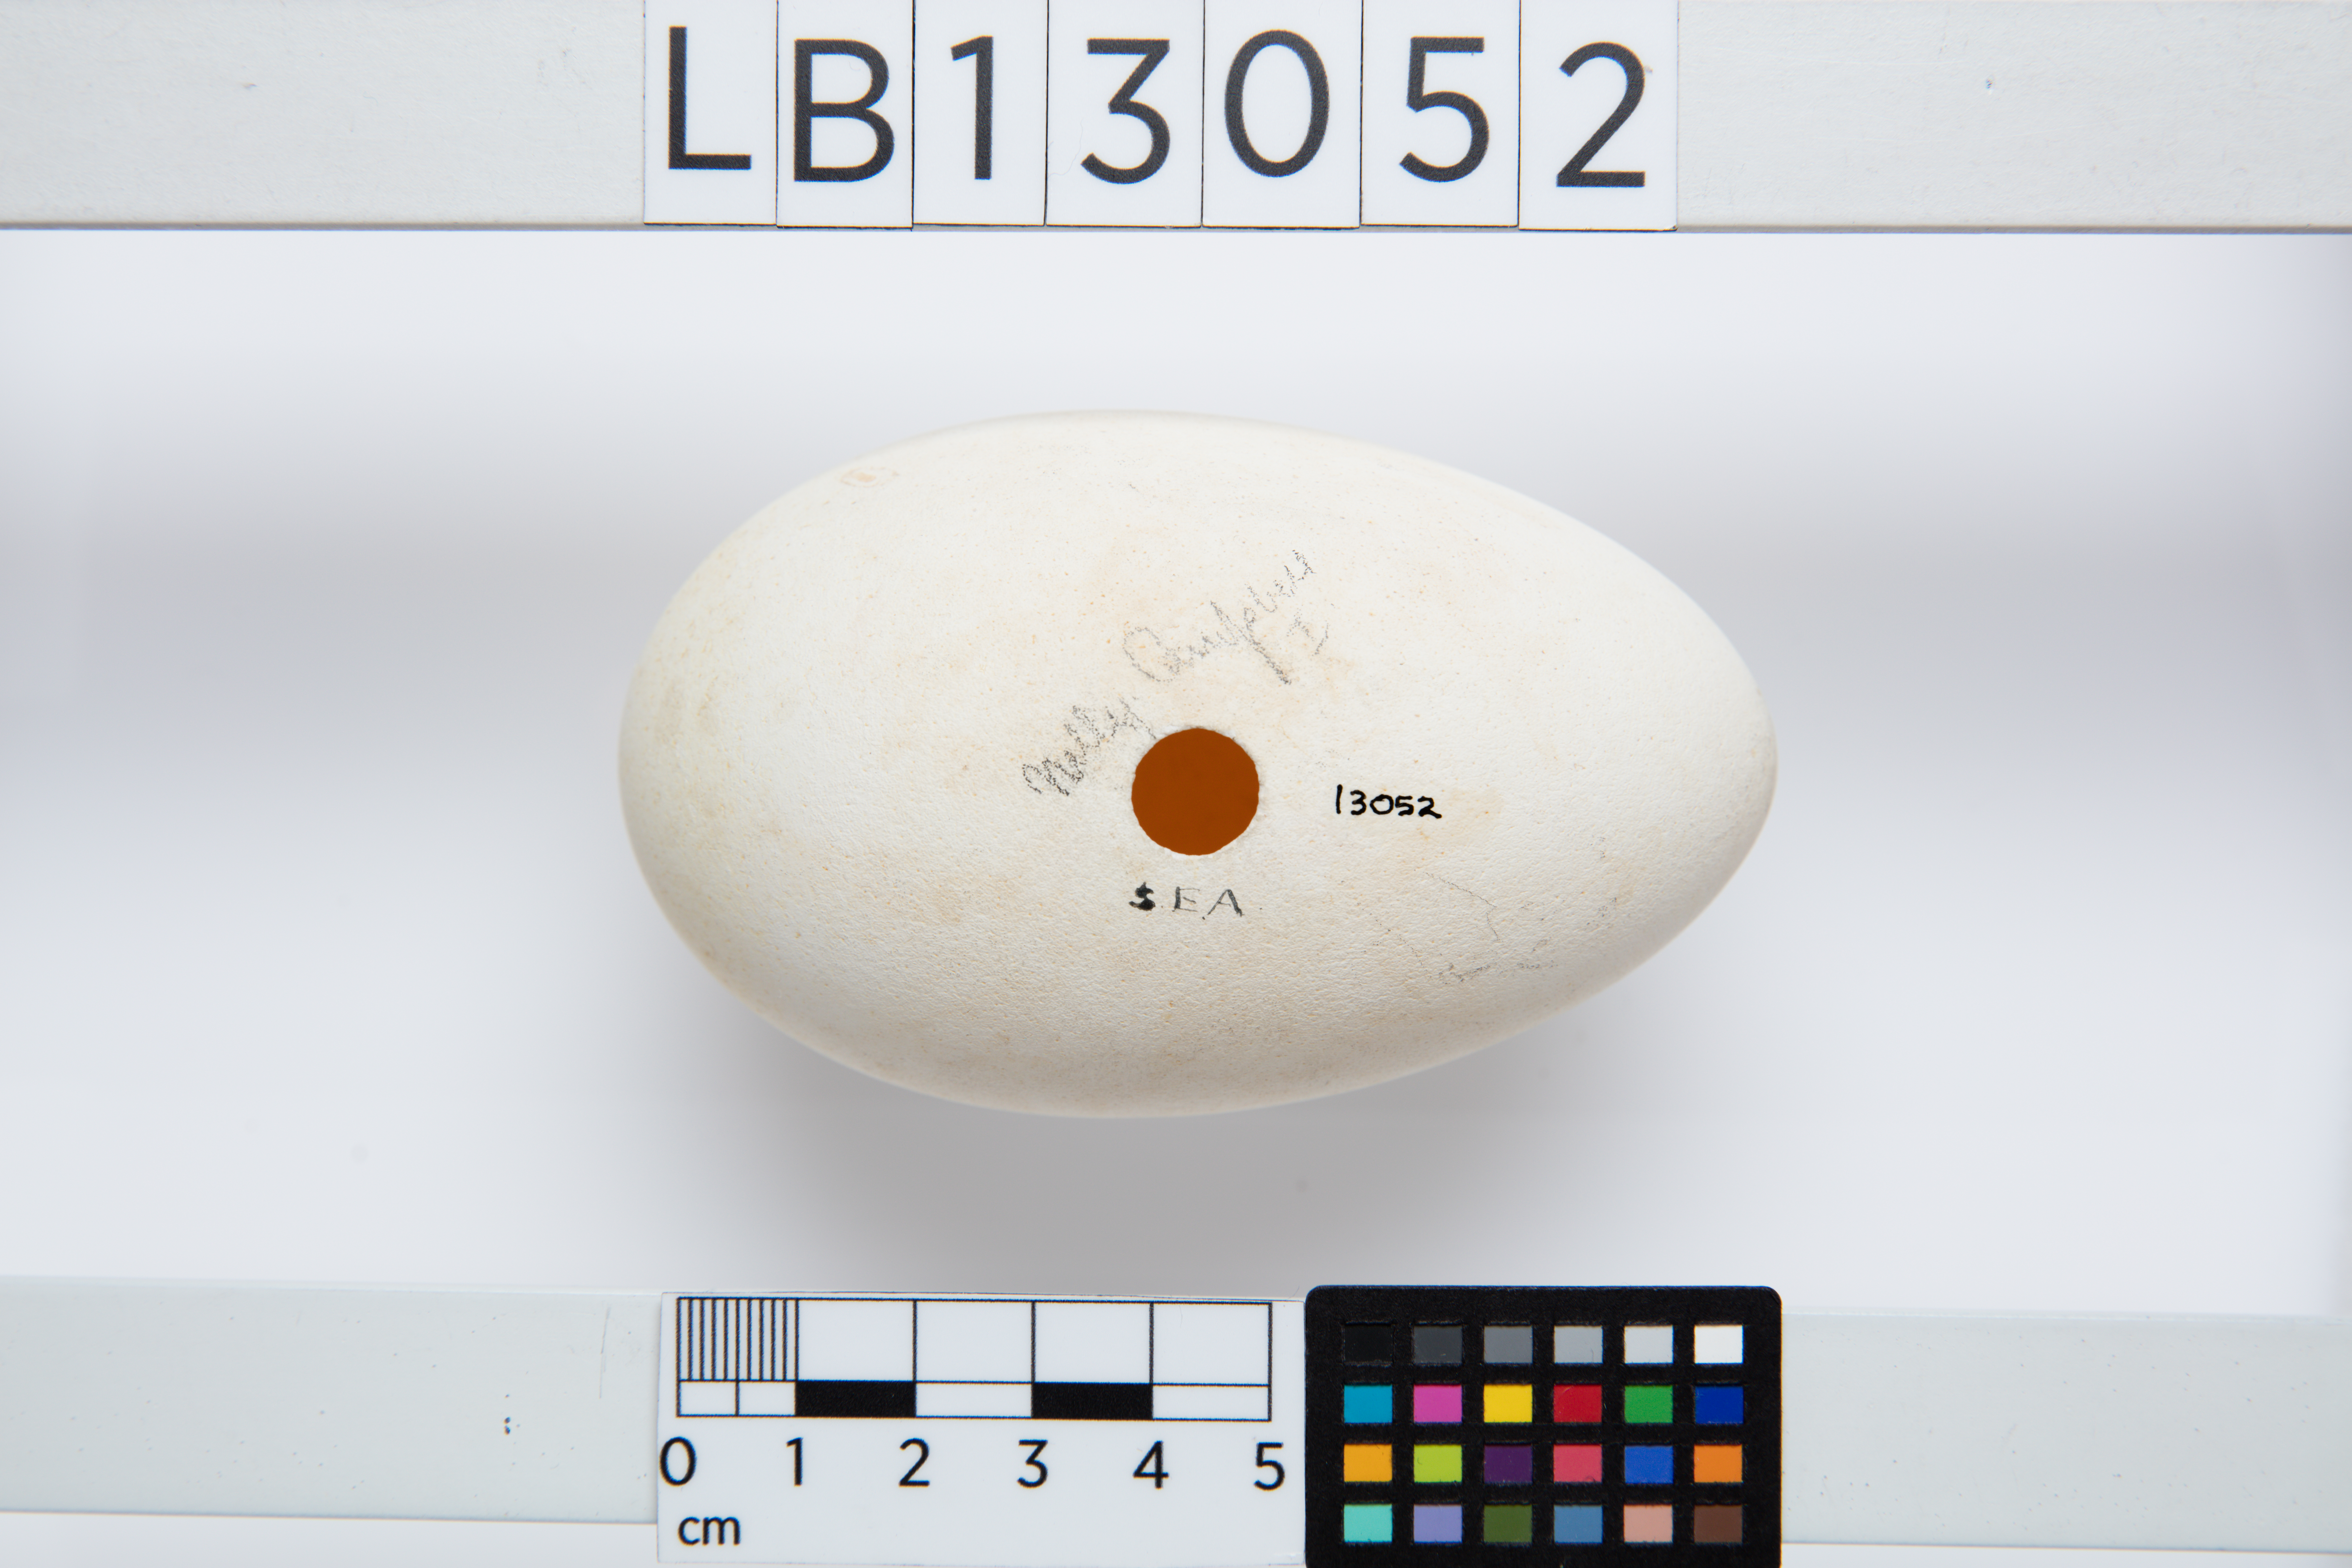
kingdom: Animalia
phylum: Chordata
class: Aves
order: Procellariiformes
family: Procellariidae
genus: Macronectes
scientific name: Macronectes halli
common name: Northern giant petrel
